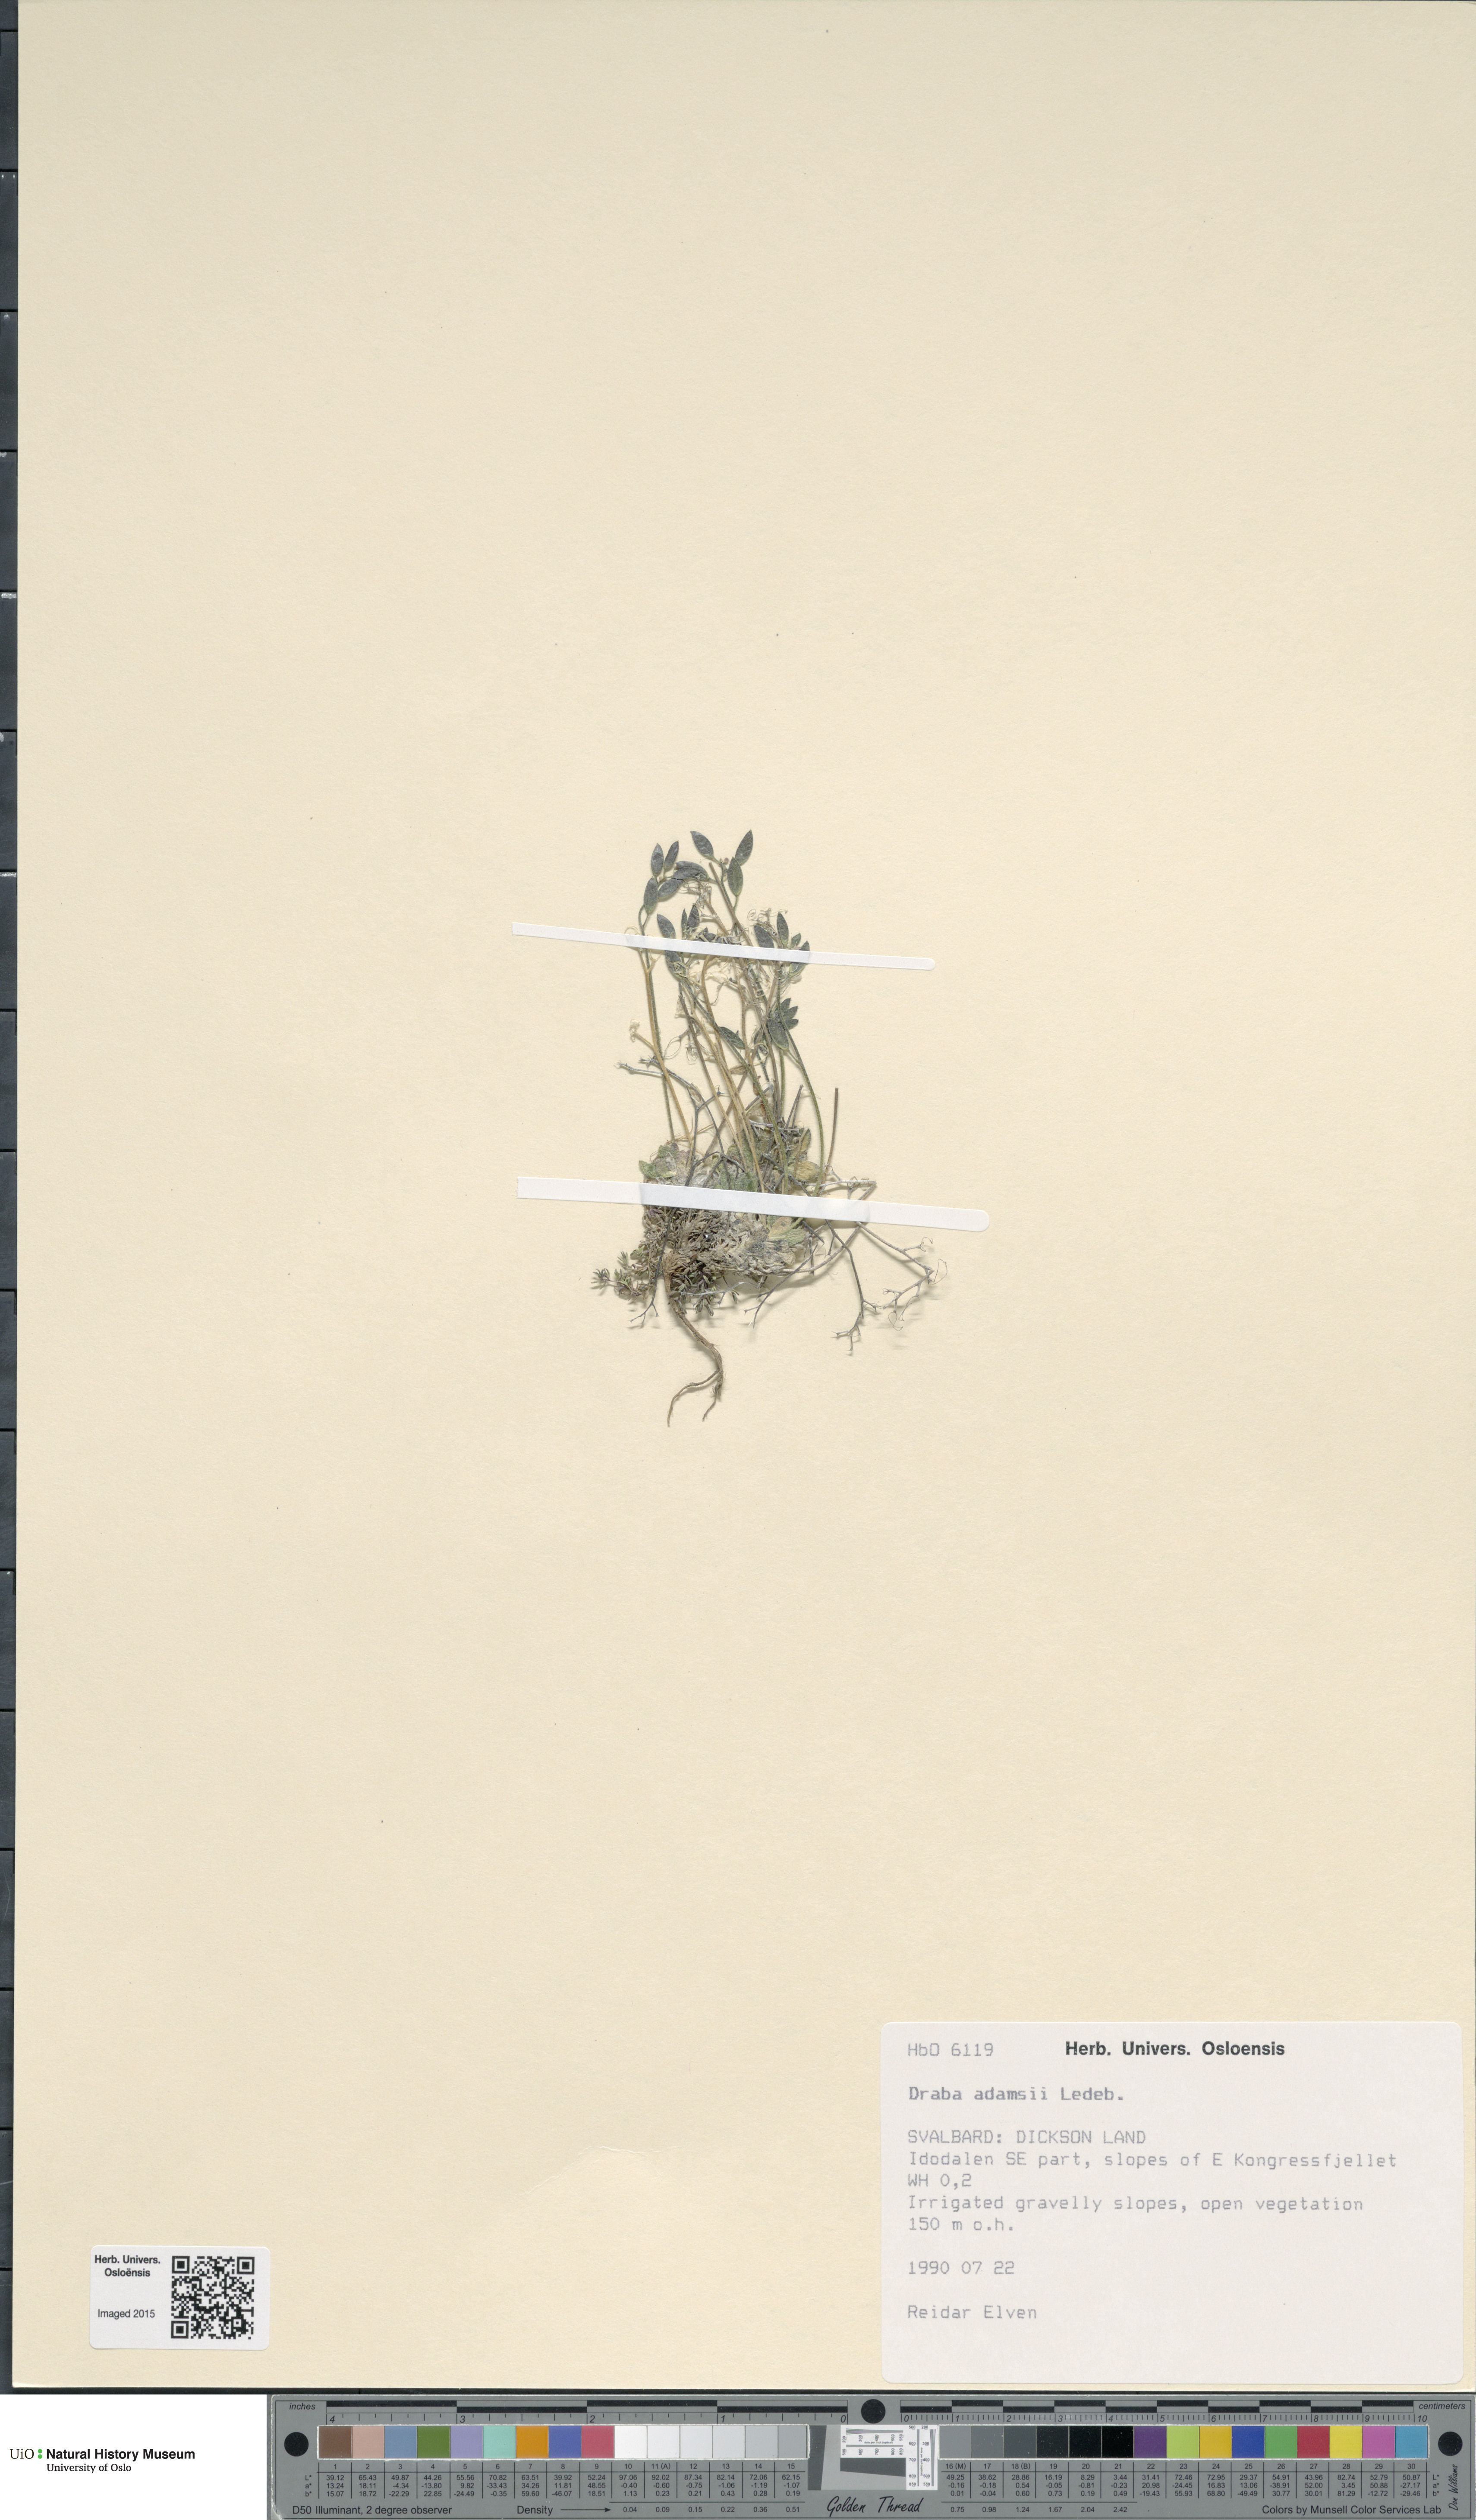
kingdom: Plantae
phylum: Tracheophyta
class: Magnoliopsida
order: Brassicales
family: Brassicaceae
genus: Draba
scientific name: Draba pauciflora
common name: Few-flowered draba
